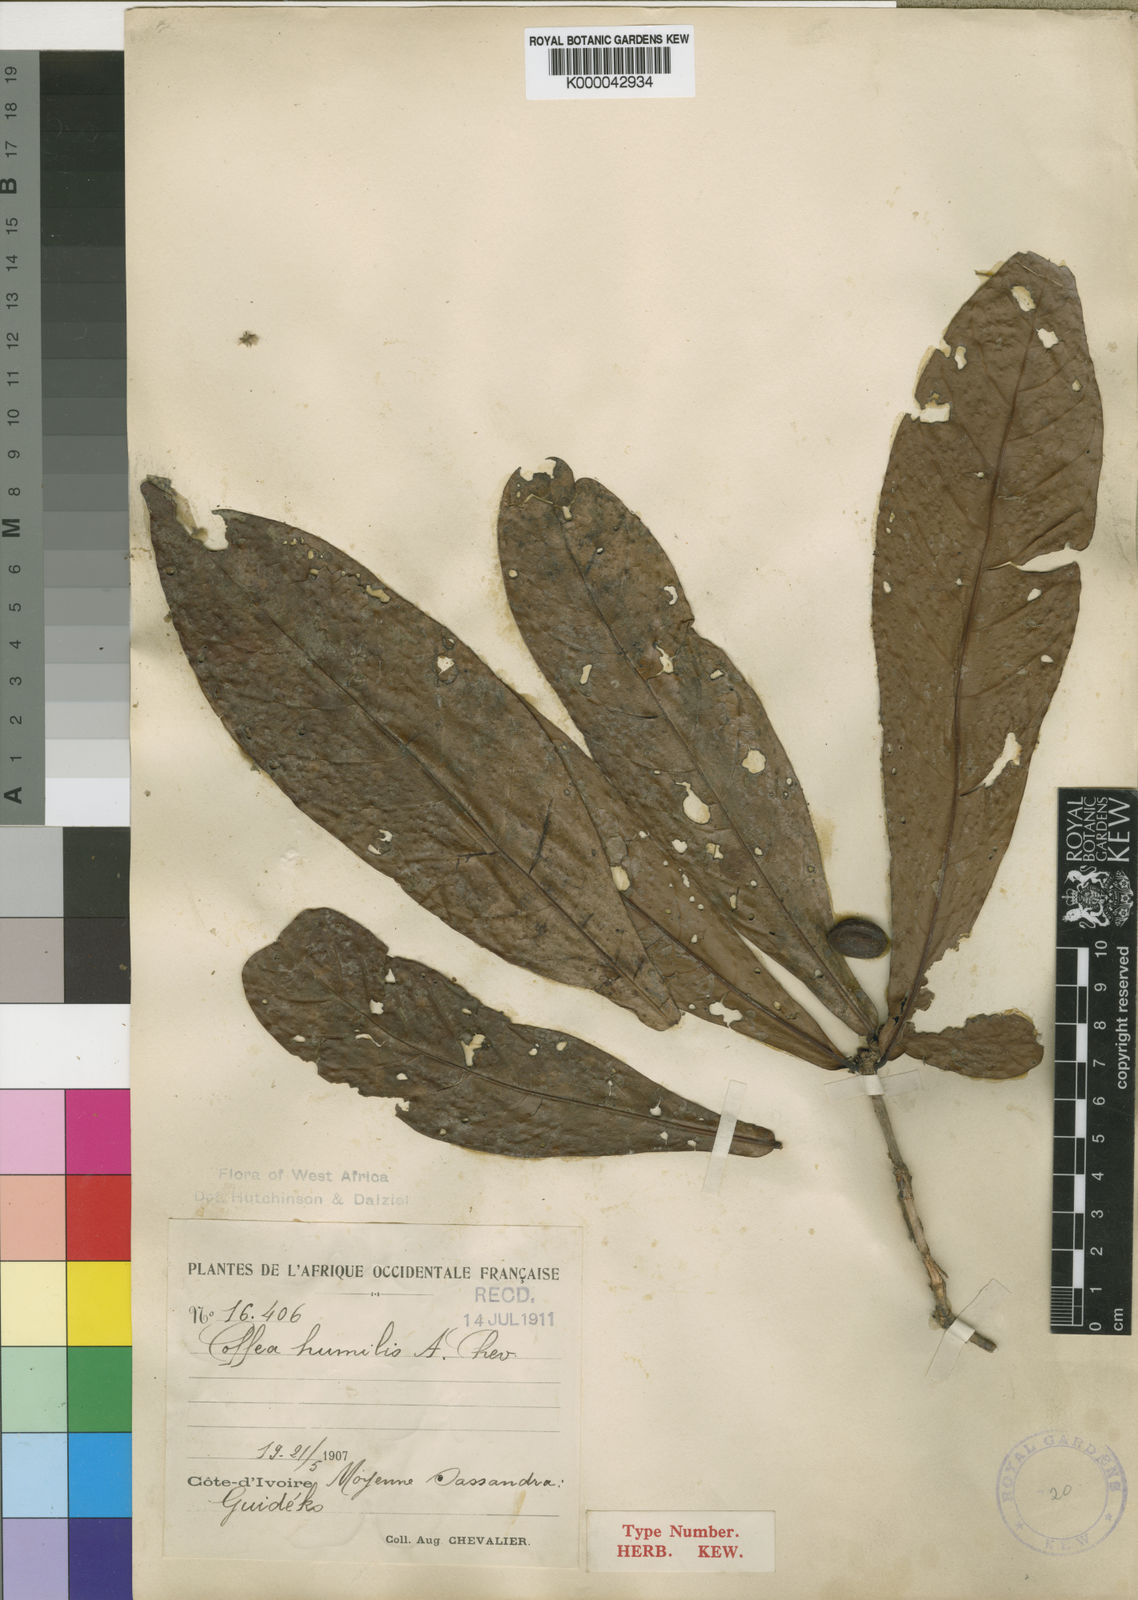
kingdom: Plantae
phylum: Tracheophyta
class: Magnoliopsida
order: Gentianales
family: Rubiaceae
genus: Coffea
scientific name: Coffea humilis
